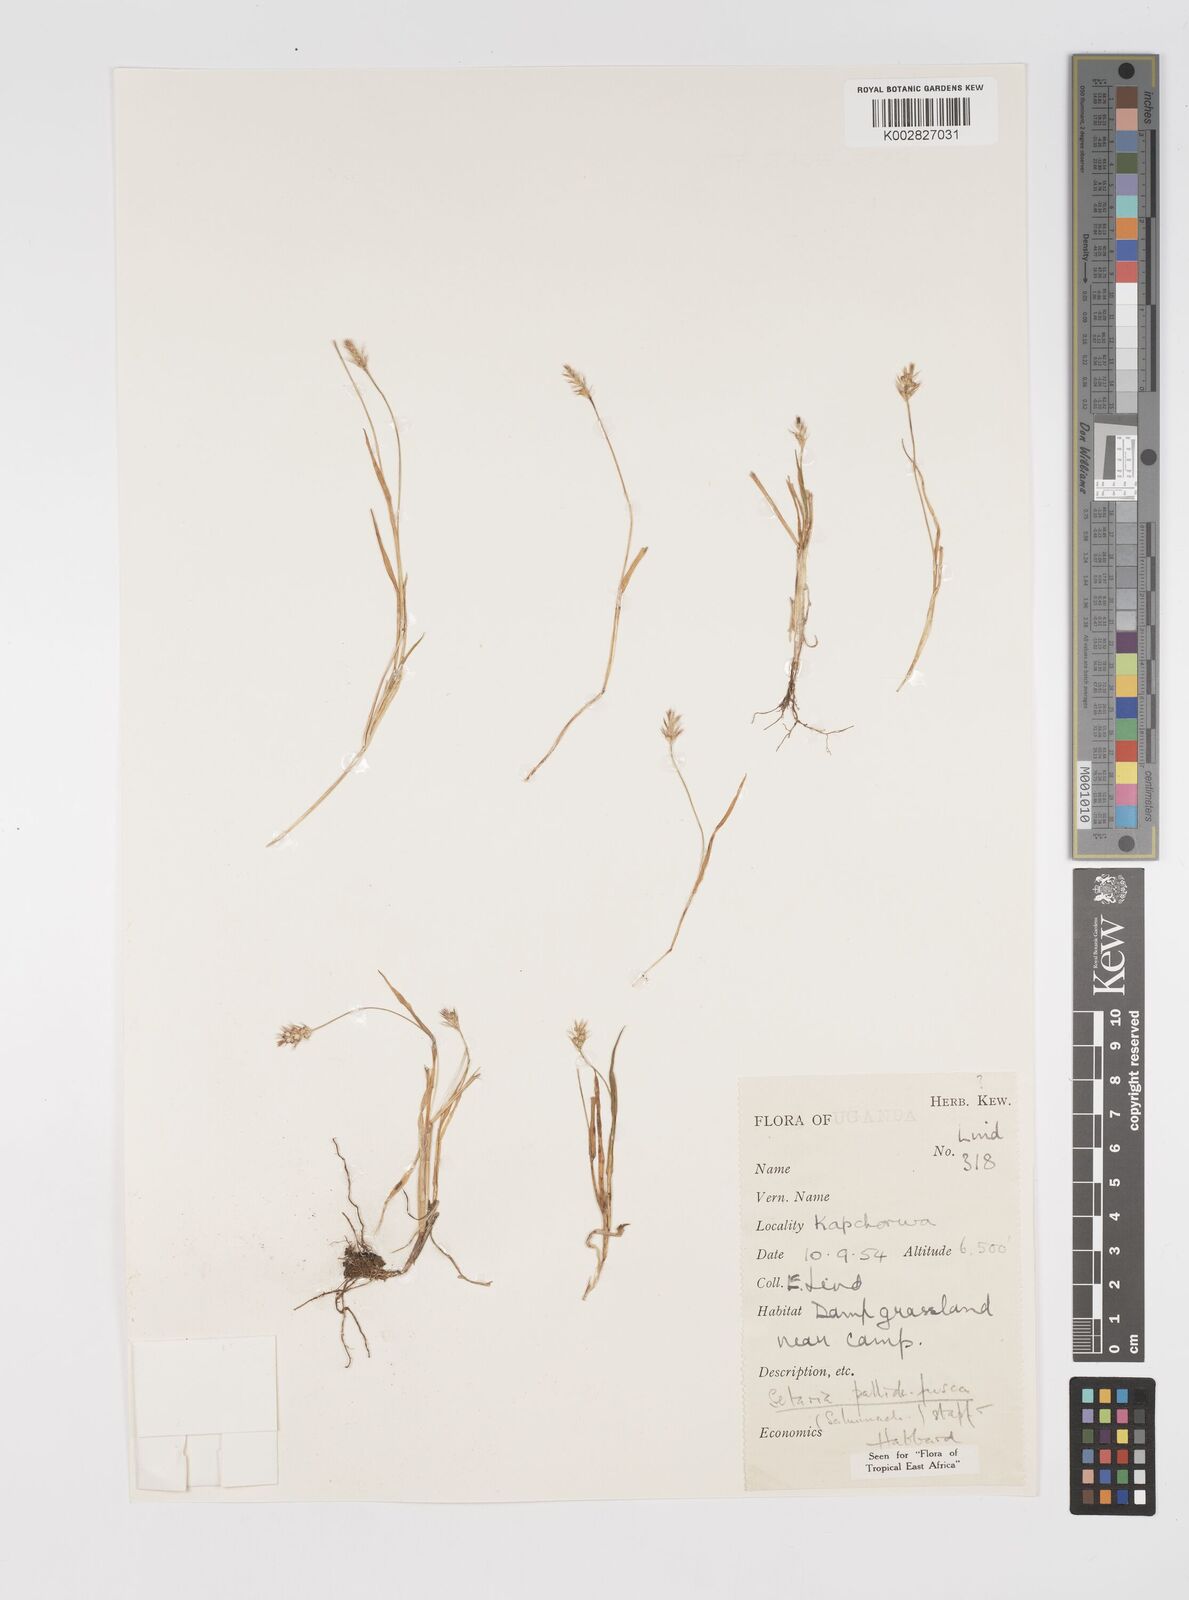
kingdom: Plantae
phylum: Tracheophyta
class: Liliopsida
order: Poales
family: Poaceae
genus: Setaria
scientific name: Setaria pumila
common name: Yellow bristle-grass
